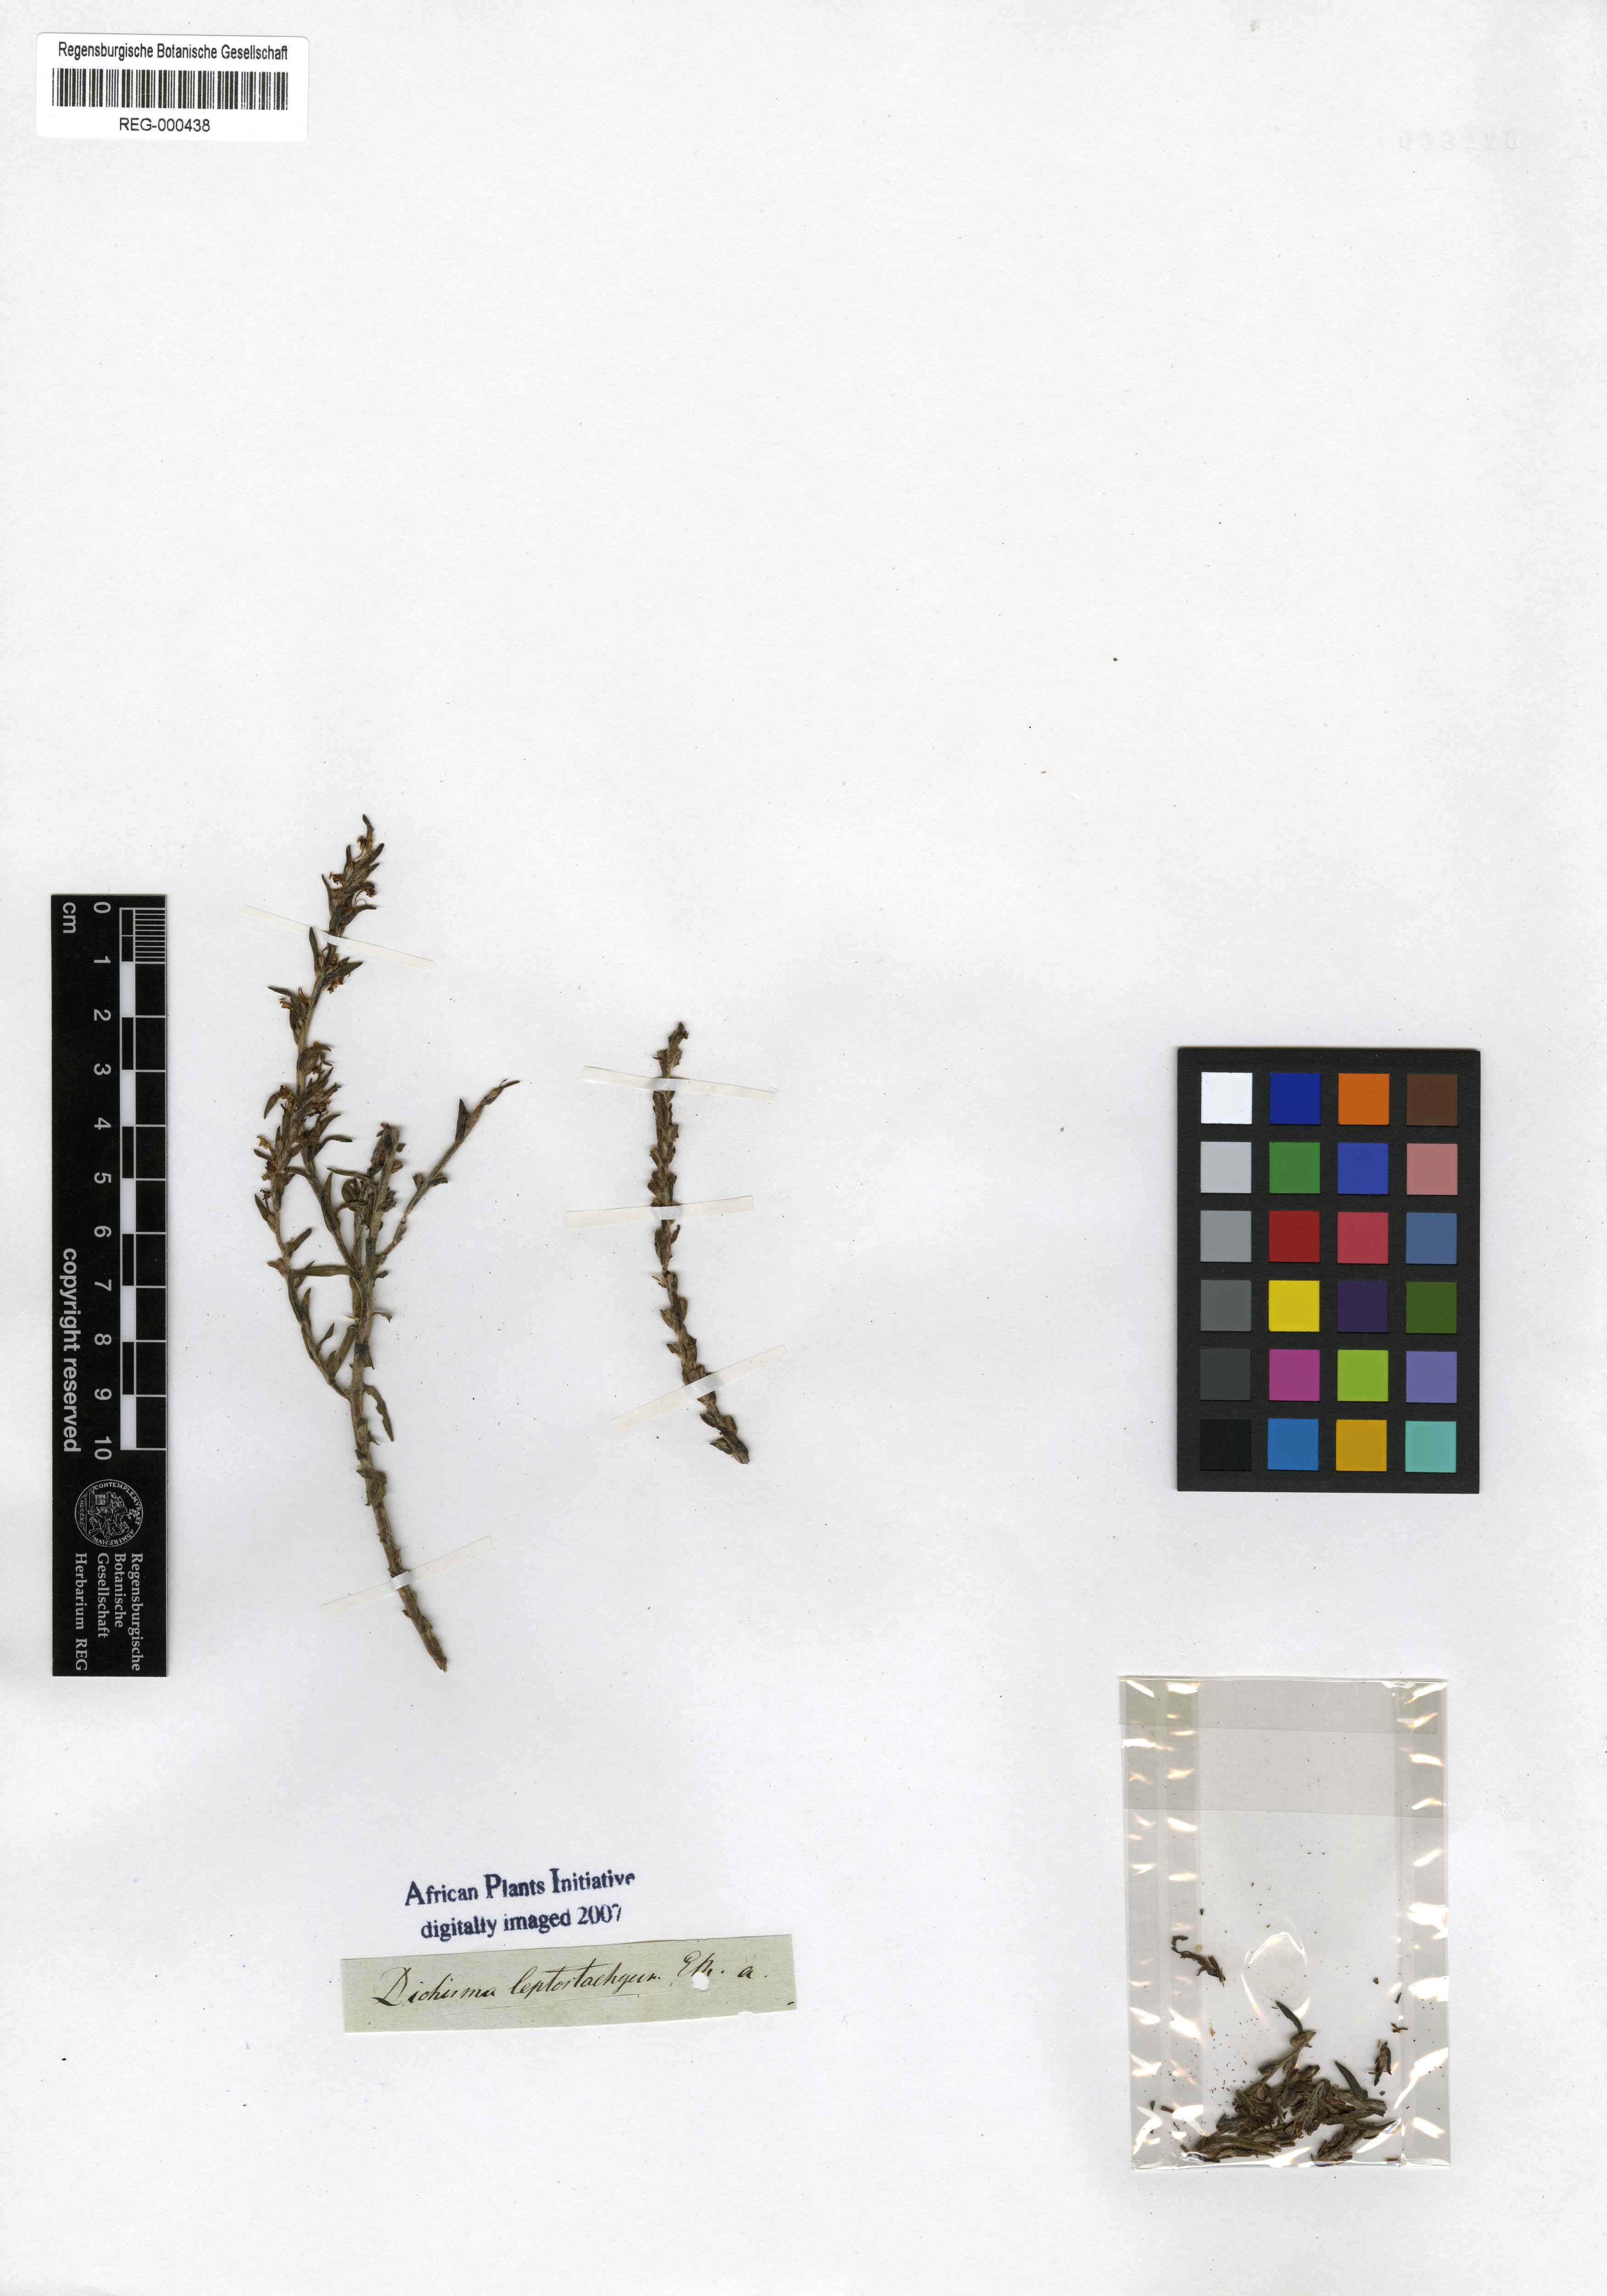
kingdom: Plantae
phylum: Tracheophyta
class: Magnoliopsida
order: Lamiales
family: Scrophulariaceae
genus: Dischisma
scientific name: Dischisma leptostachyum
